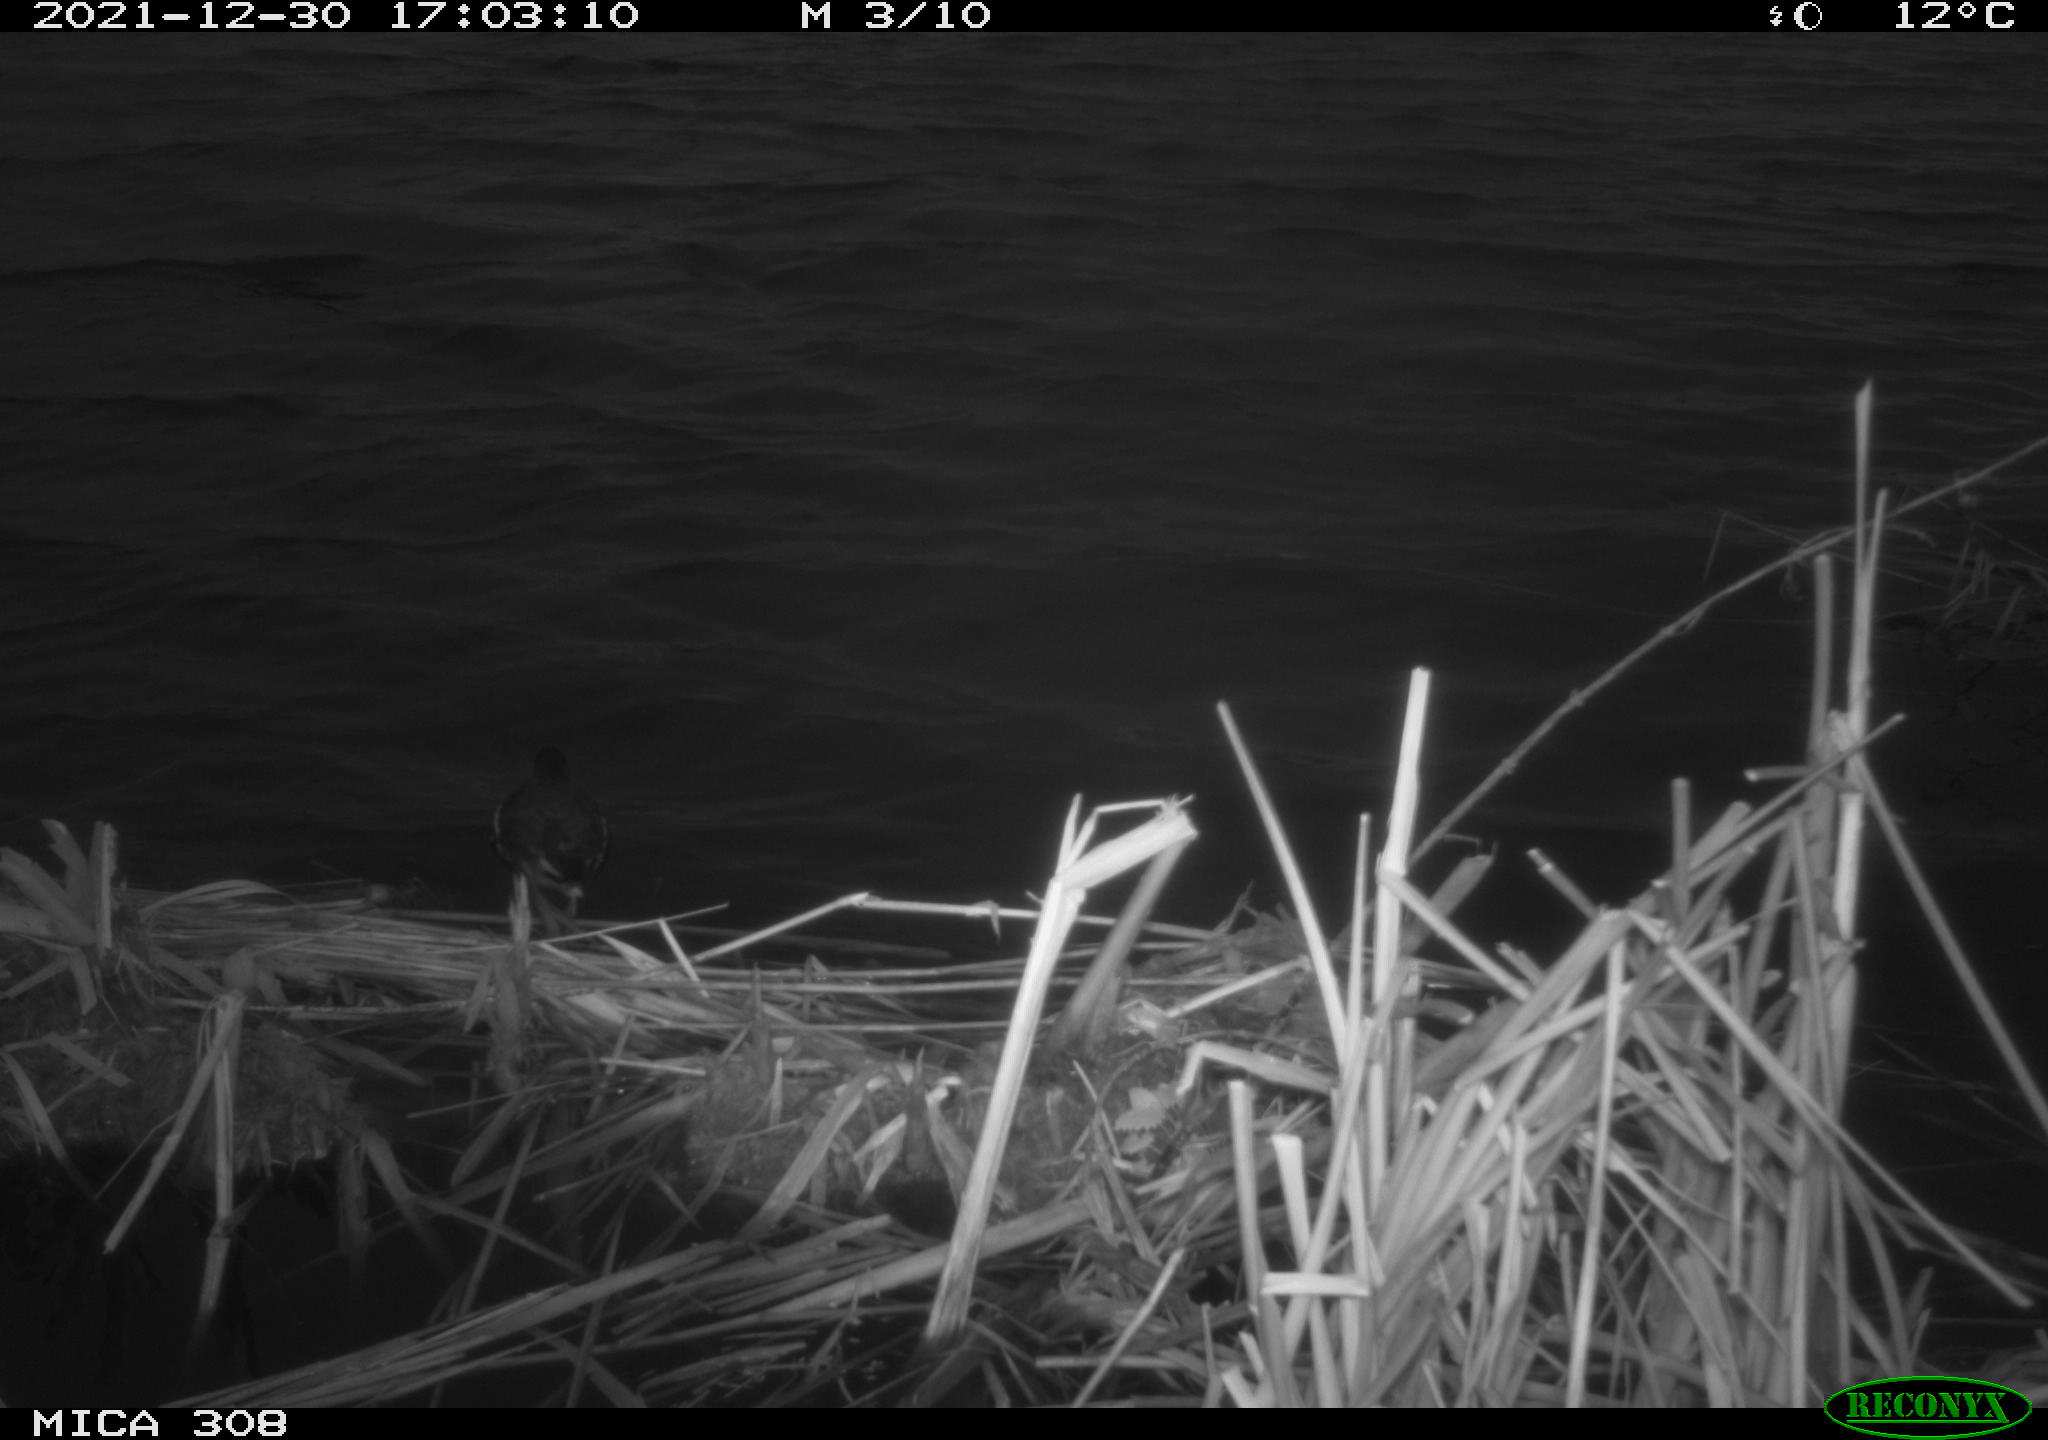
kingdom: Animalia
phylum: Chordata
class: Aves
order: Gruiformes
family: Rallidae
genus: Gallinula
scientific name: Gallinula chloropus
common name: Common moorhen
